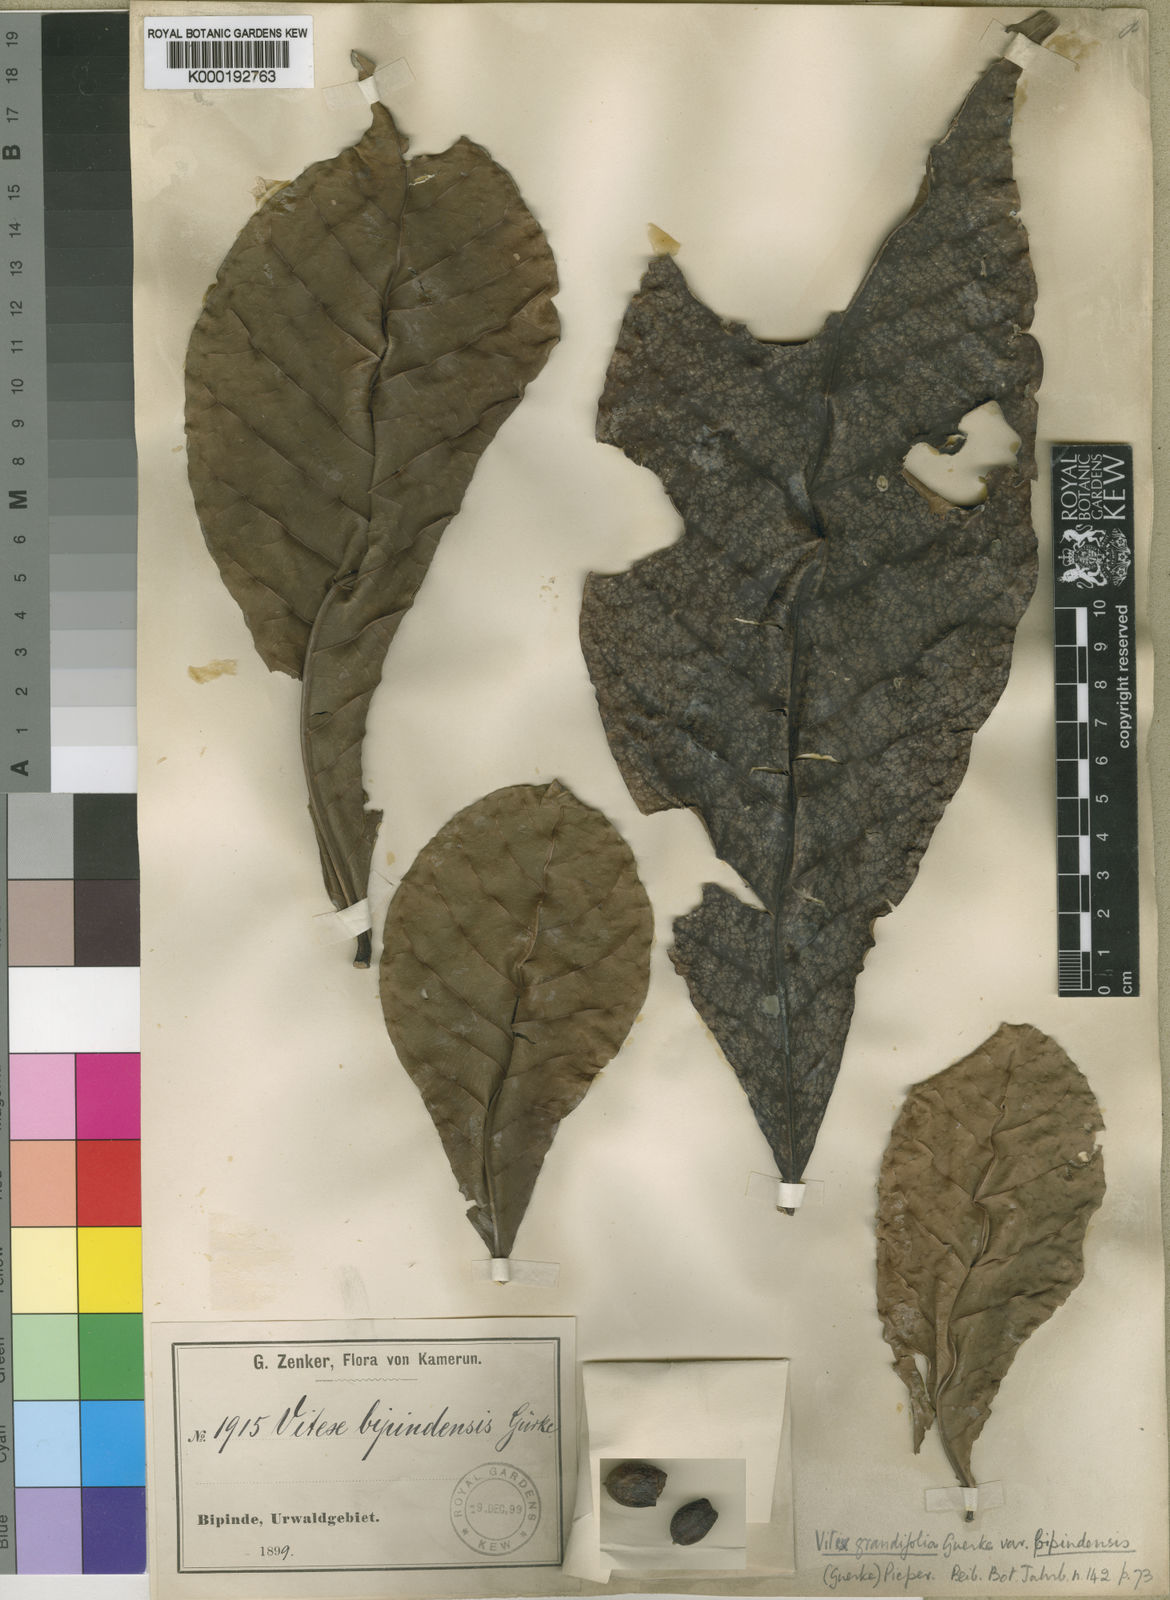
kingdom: Plantae
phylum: Tracheophyta
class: Magnoliopsida
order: Lamiales
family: Lamiaceae
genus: Vitex
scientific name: Vitex
